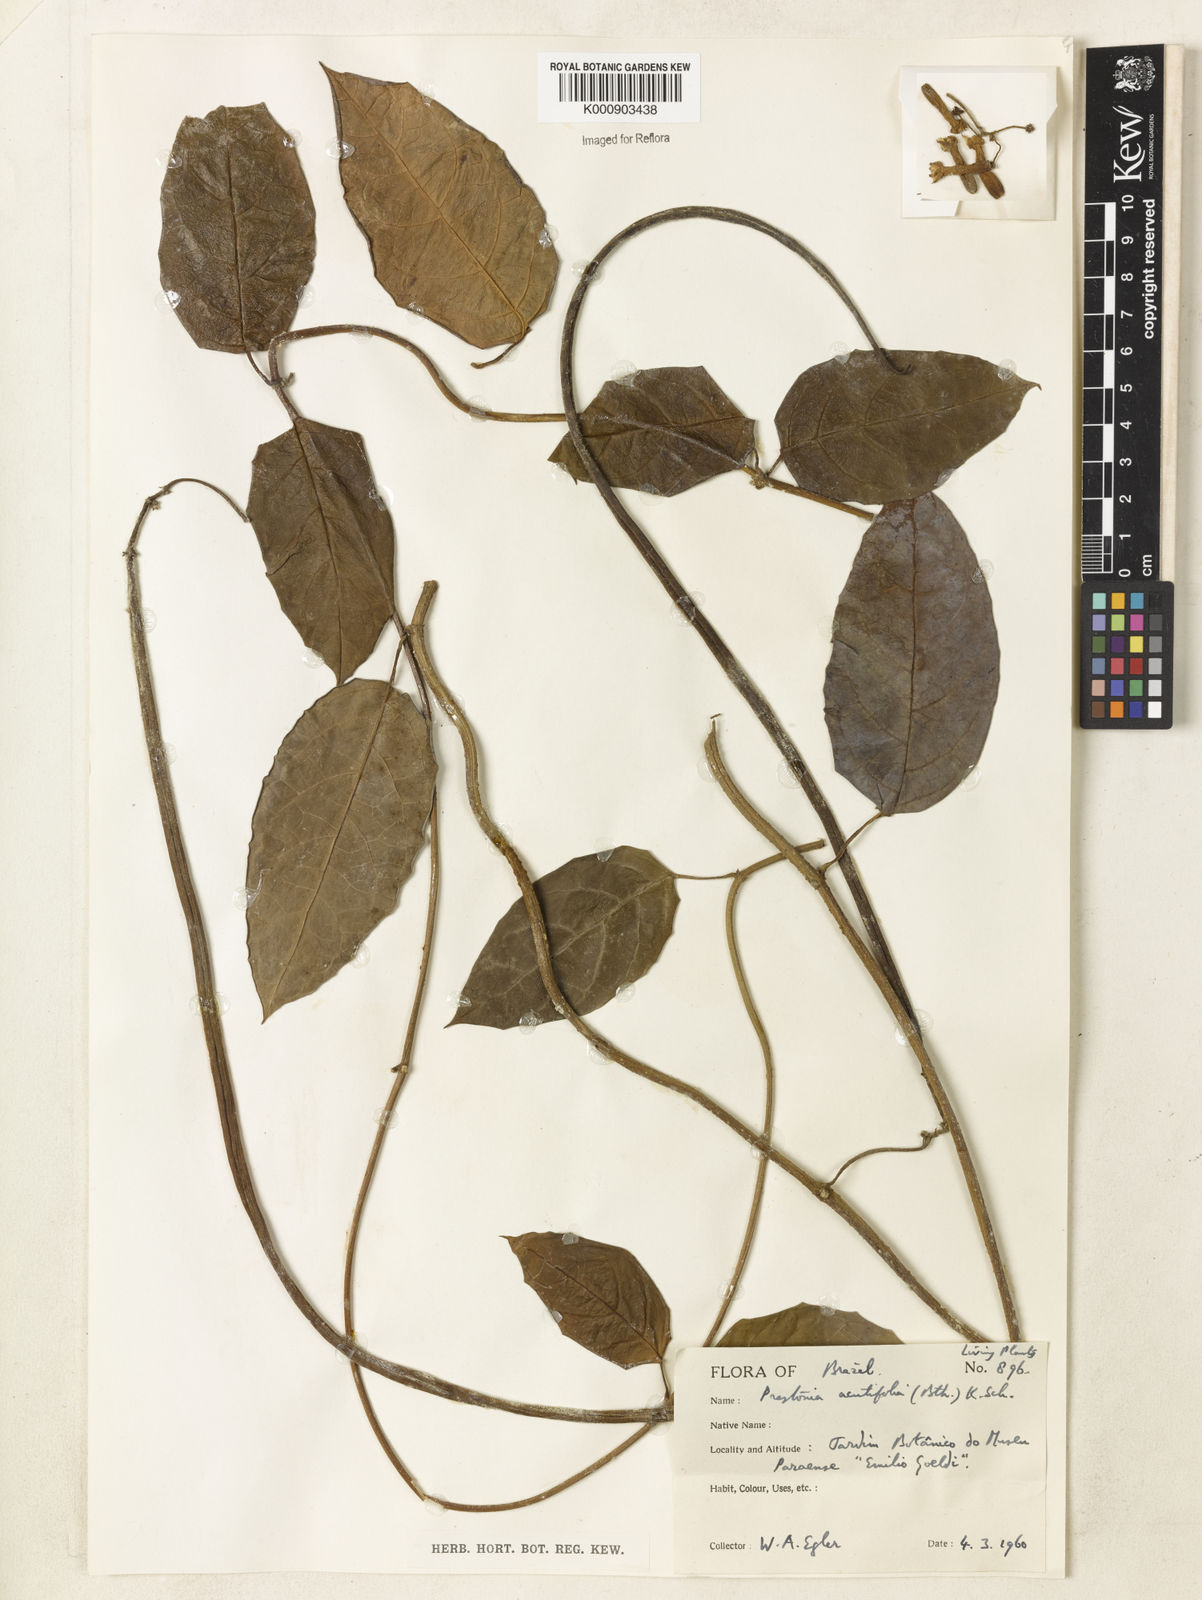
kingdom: Plantae
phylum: Tracheophyta
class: Magnoliopsida
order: Gentianales
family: Apocynaceae
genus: Prestonia
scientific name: Prestonia quinquangularis
